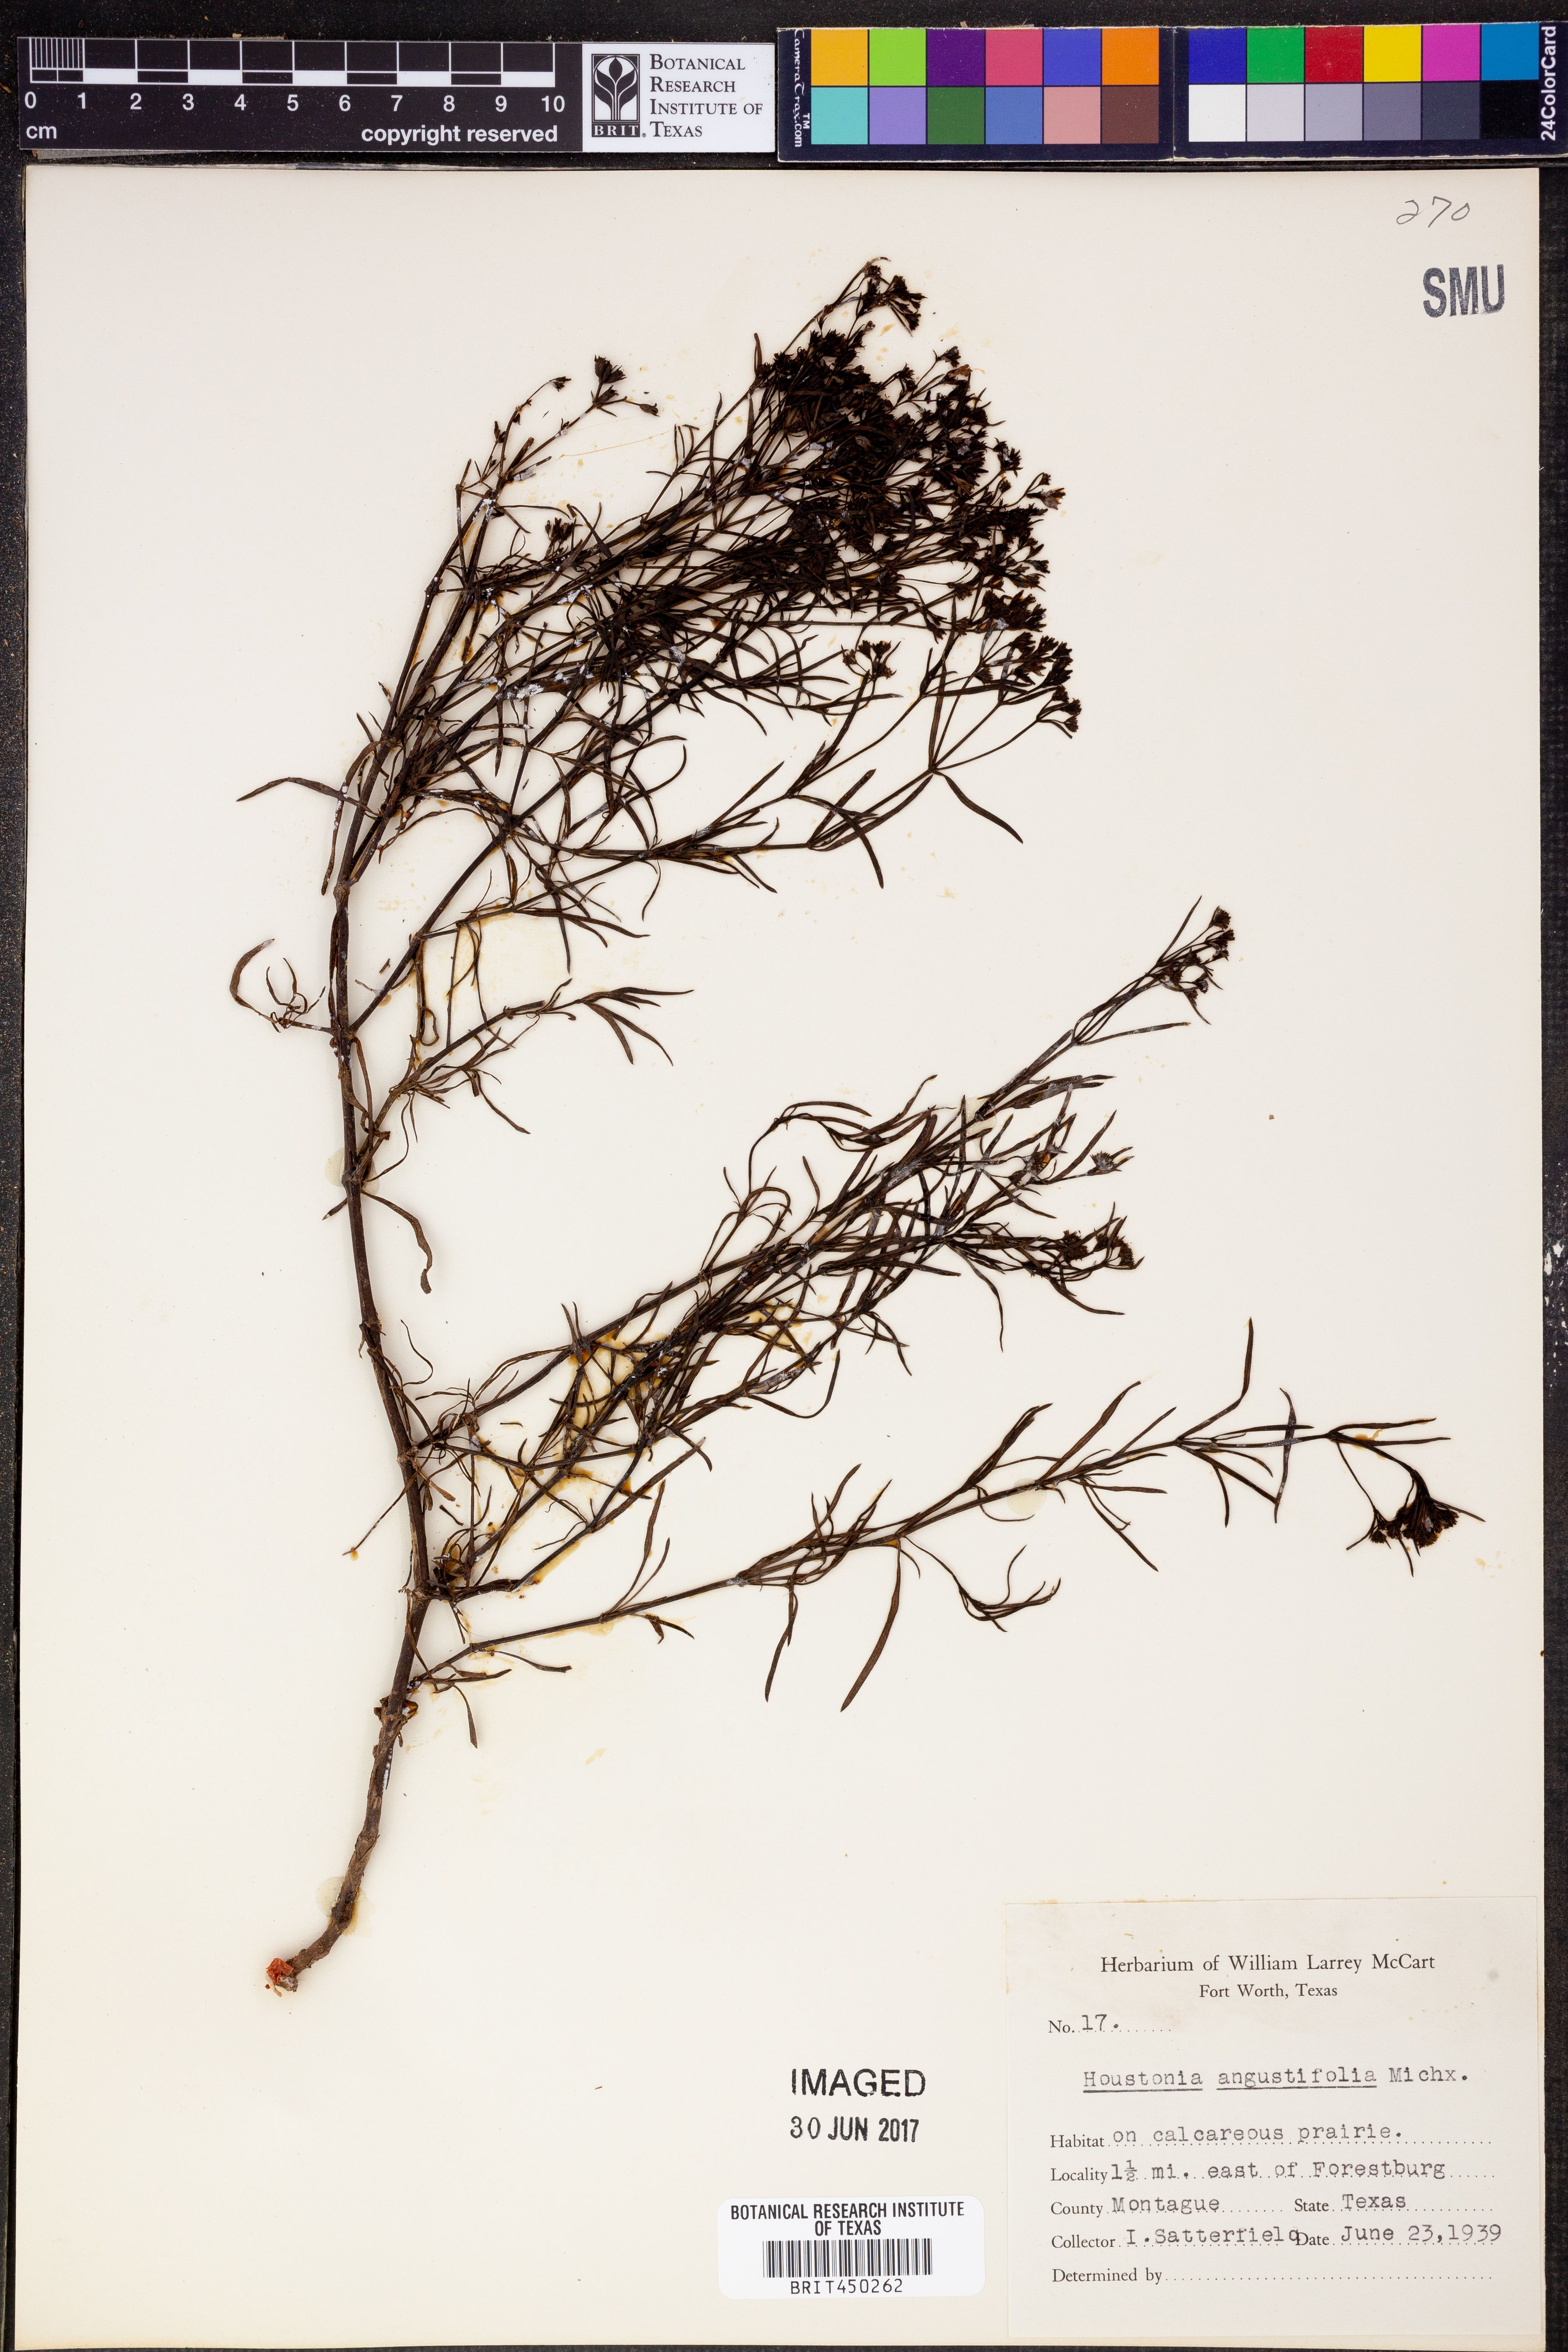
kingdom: Plantae
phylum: Tracheophyta
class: Magnoliopsida
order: Gentianales
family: Rubiaceae
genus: Stenaria
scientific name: Stenaria nigricans
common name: Diamondflowers
